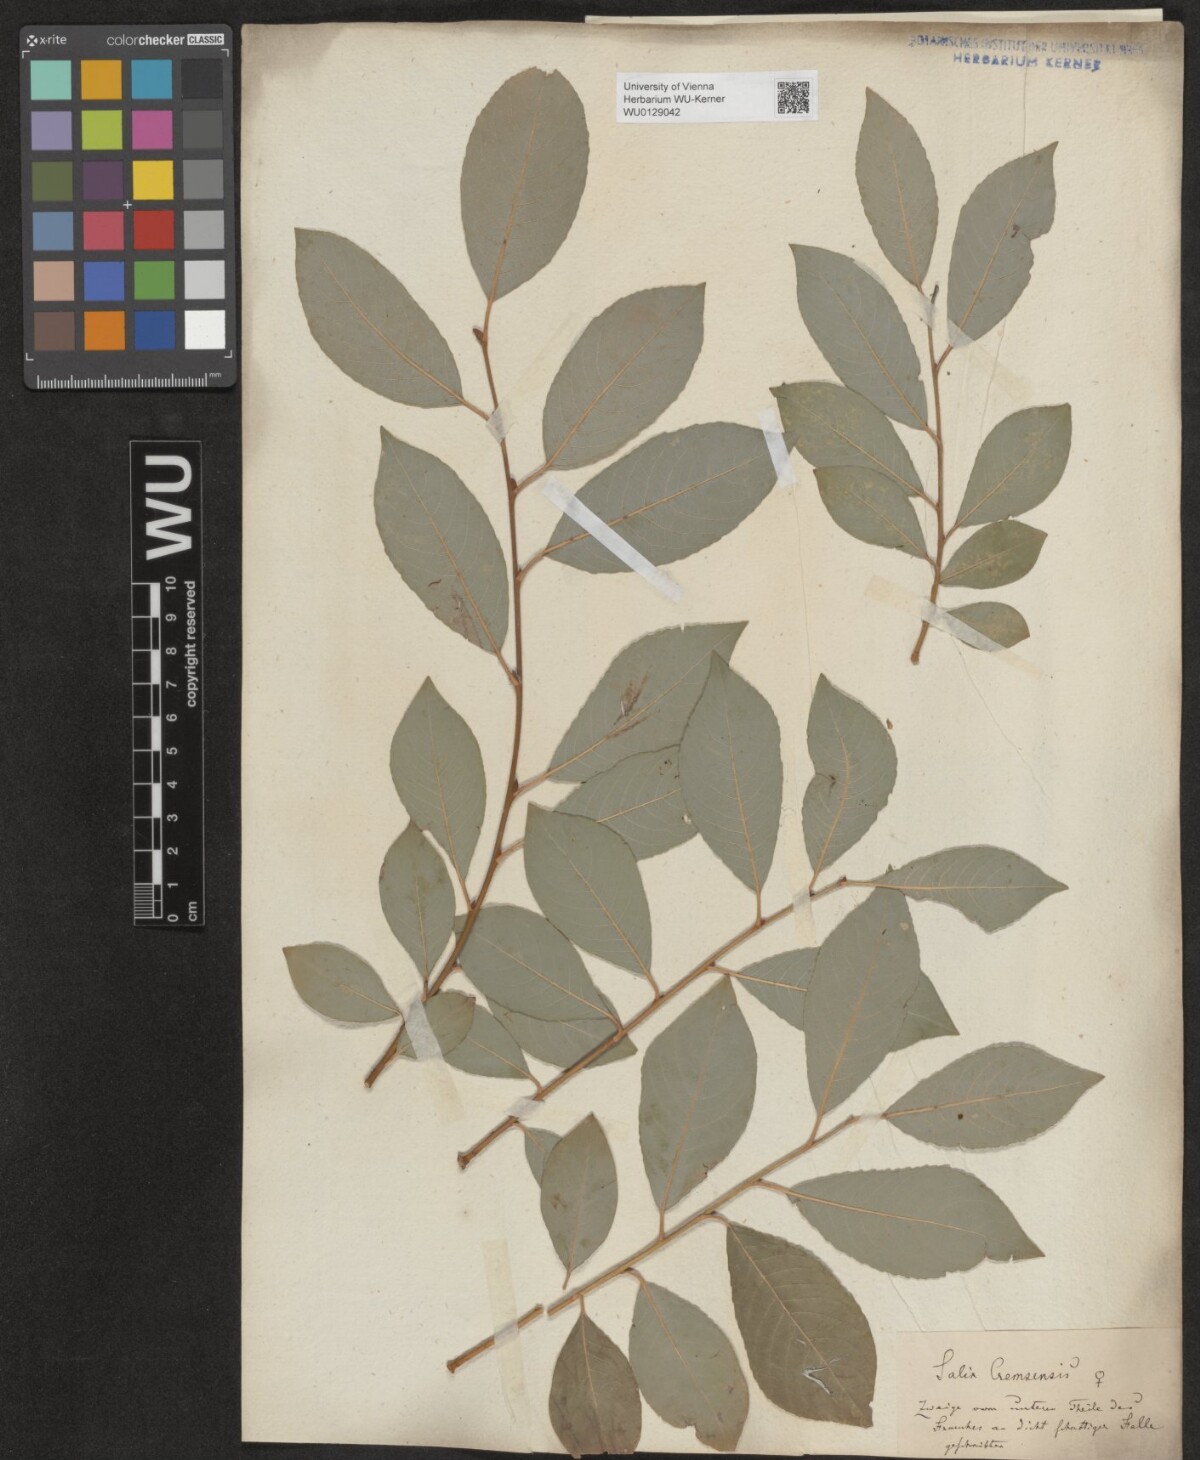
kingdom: Plantae
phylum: Tracheophyta
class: Magnoliopsida
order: Malpighiales
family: Salicaceae
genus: Salix
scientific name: Salix erdingeri
